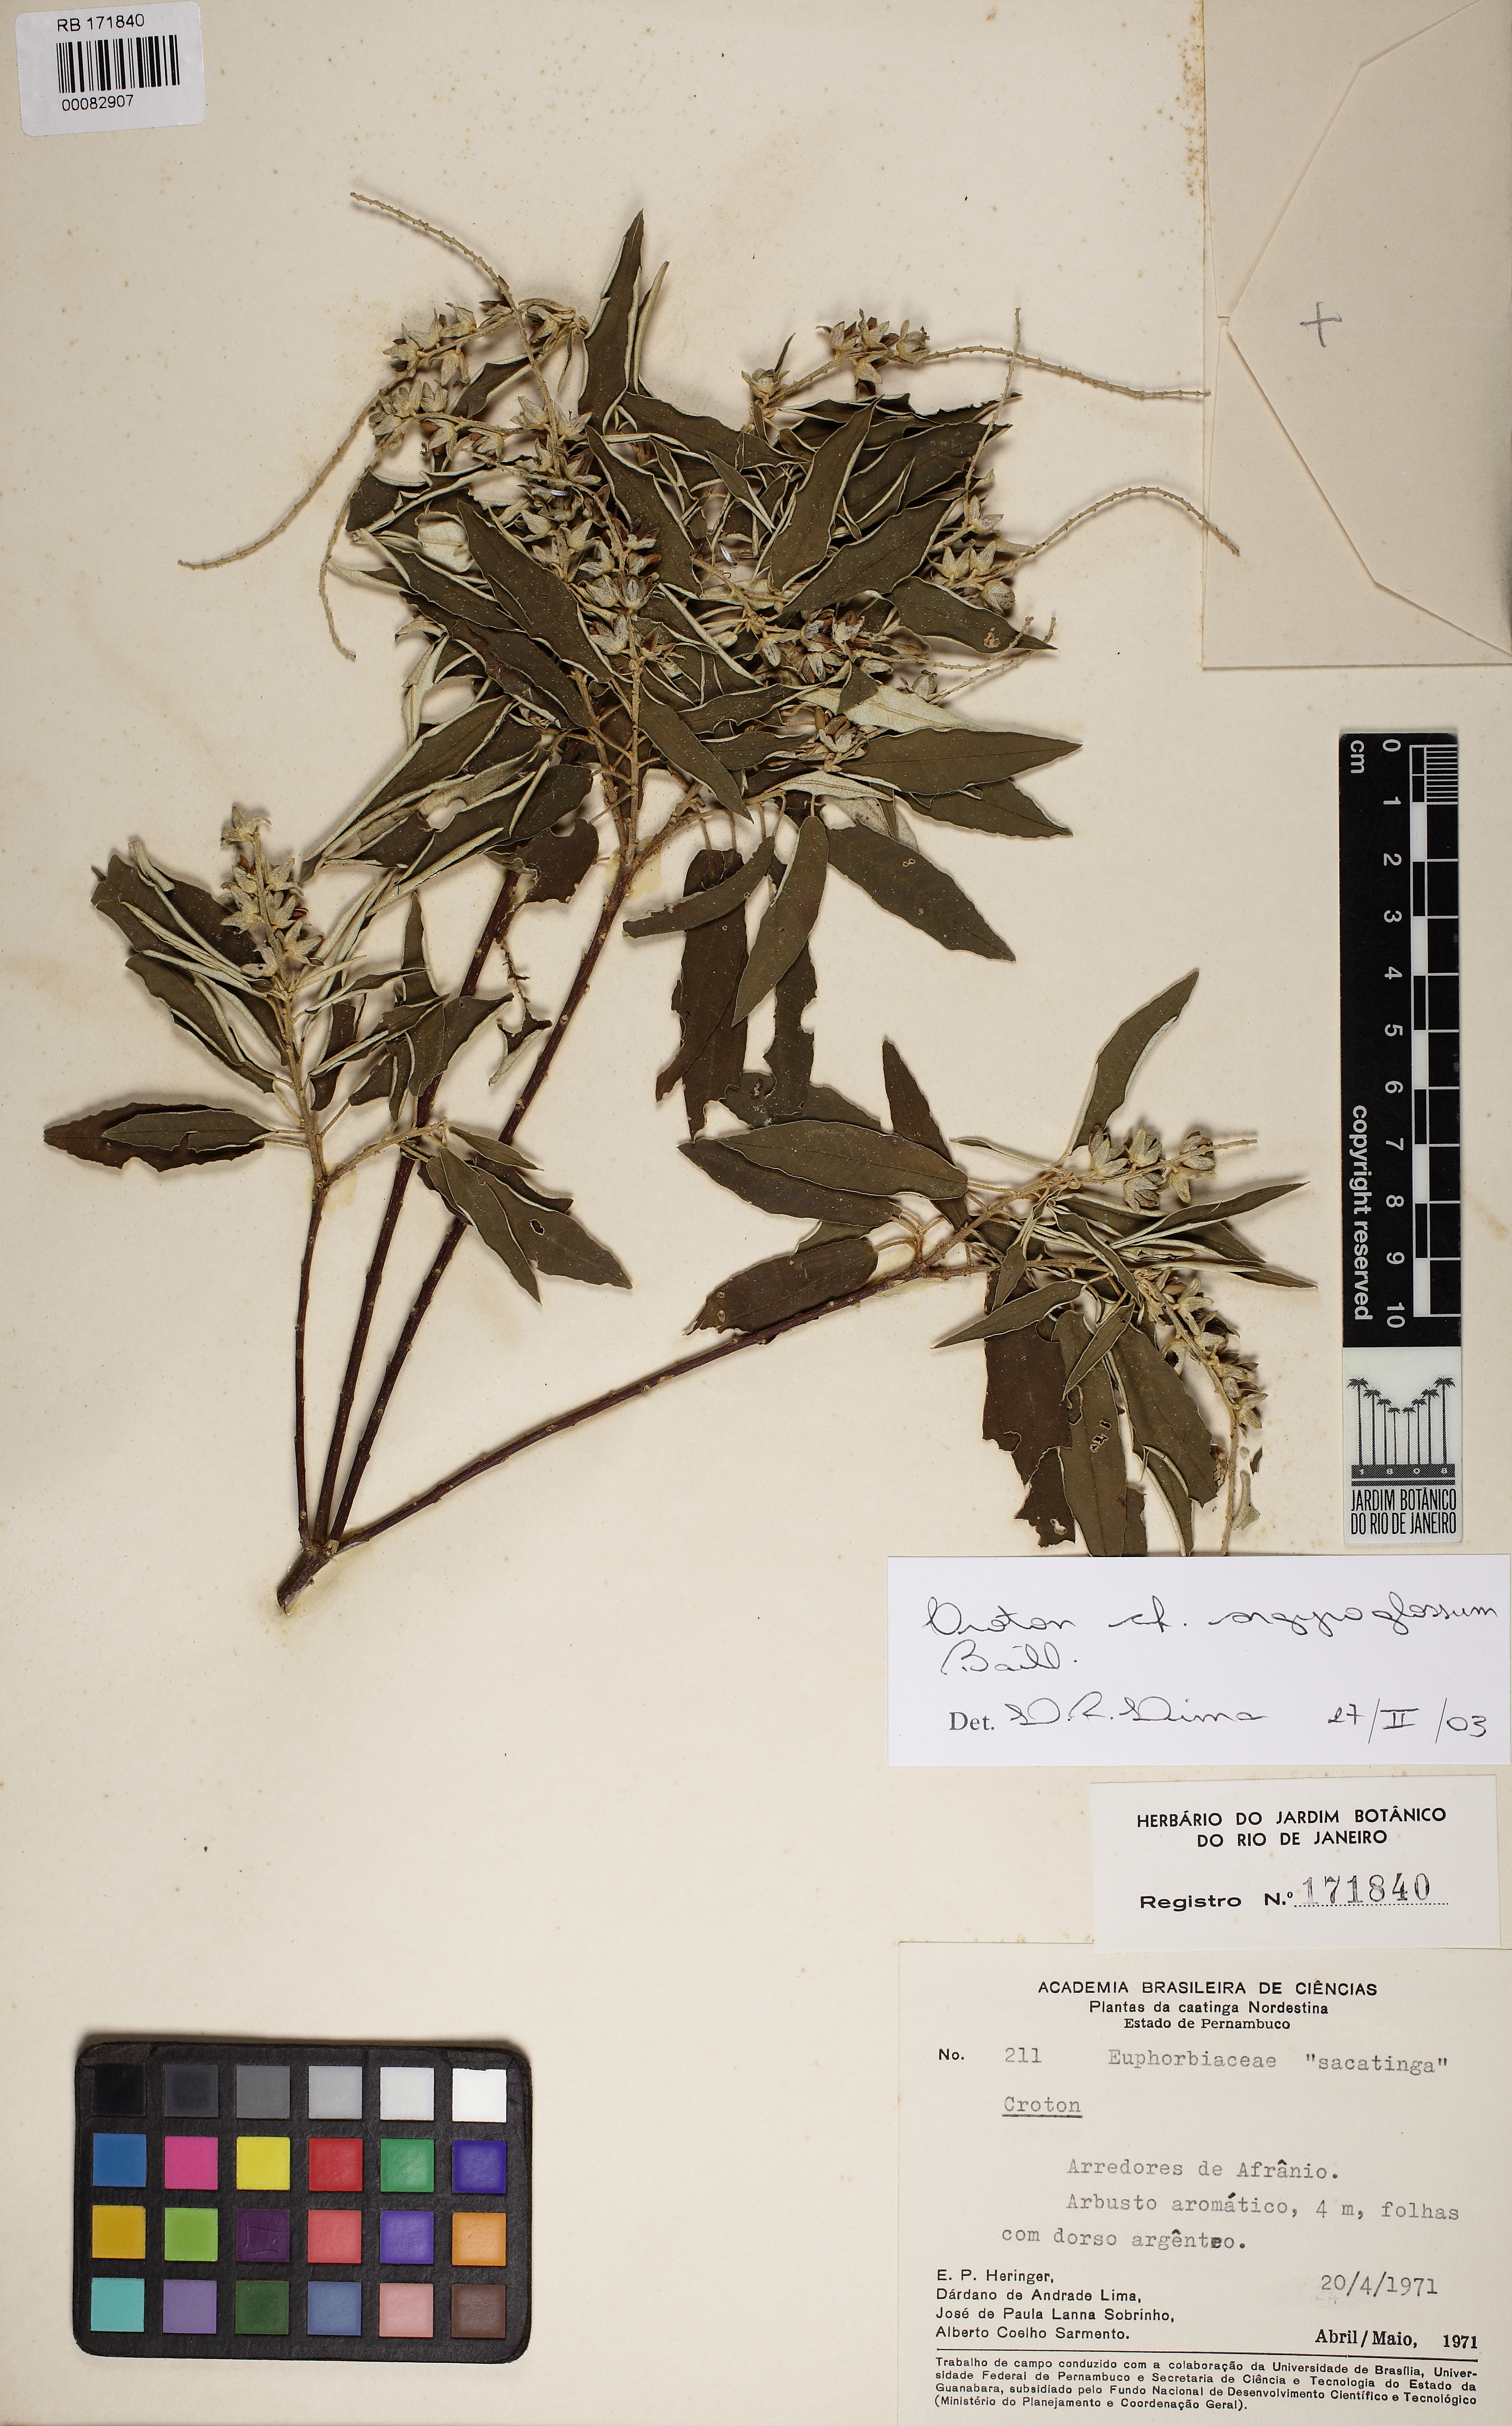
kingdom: Plantae
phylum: Tracheophyta
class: Magnoliopsida
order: Malpighiales
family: Euphorbiaceae
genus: Croton
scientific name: Croton argyrophyllus
